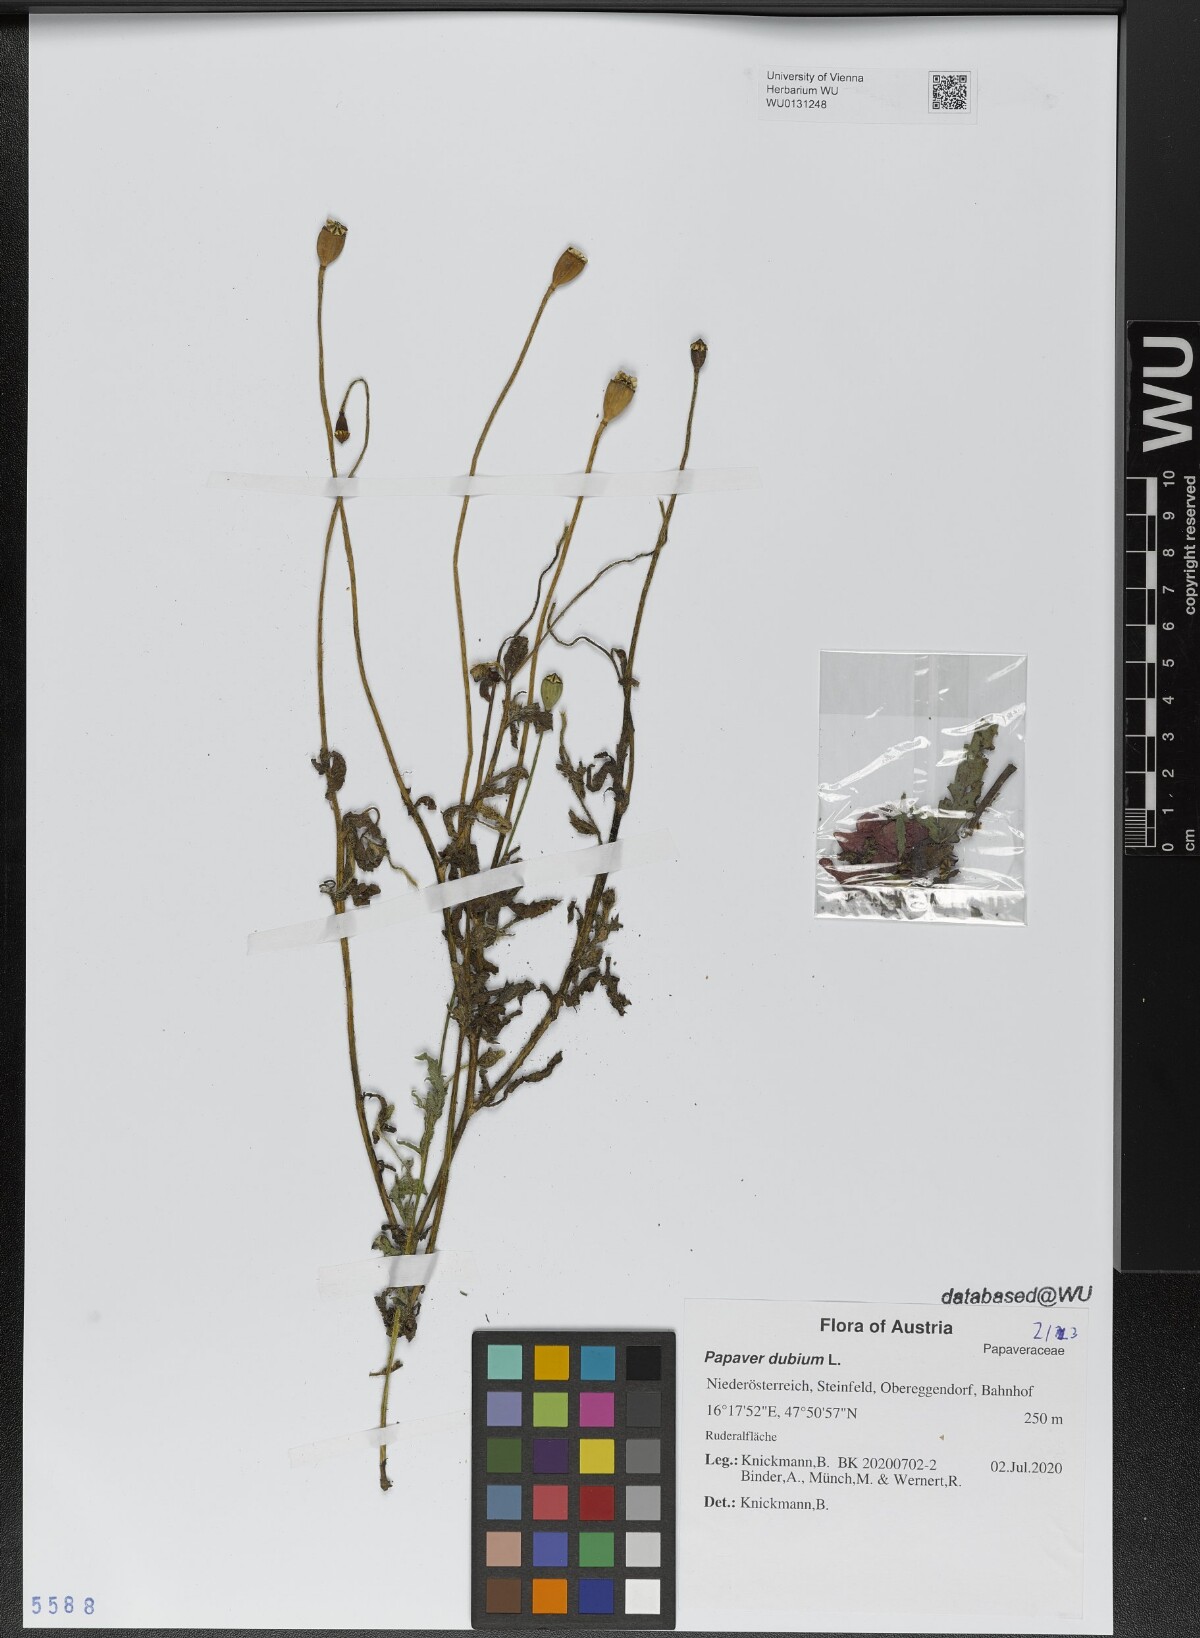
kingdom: Plantae
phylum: Tracheophyta
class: Magnoliopsida
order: Ranunculales
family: Papaveraceae
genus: Papaver
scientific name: Papaver dubium
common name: Long-headed poppy
